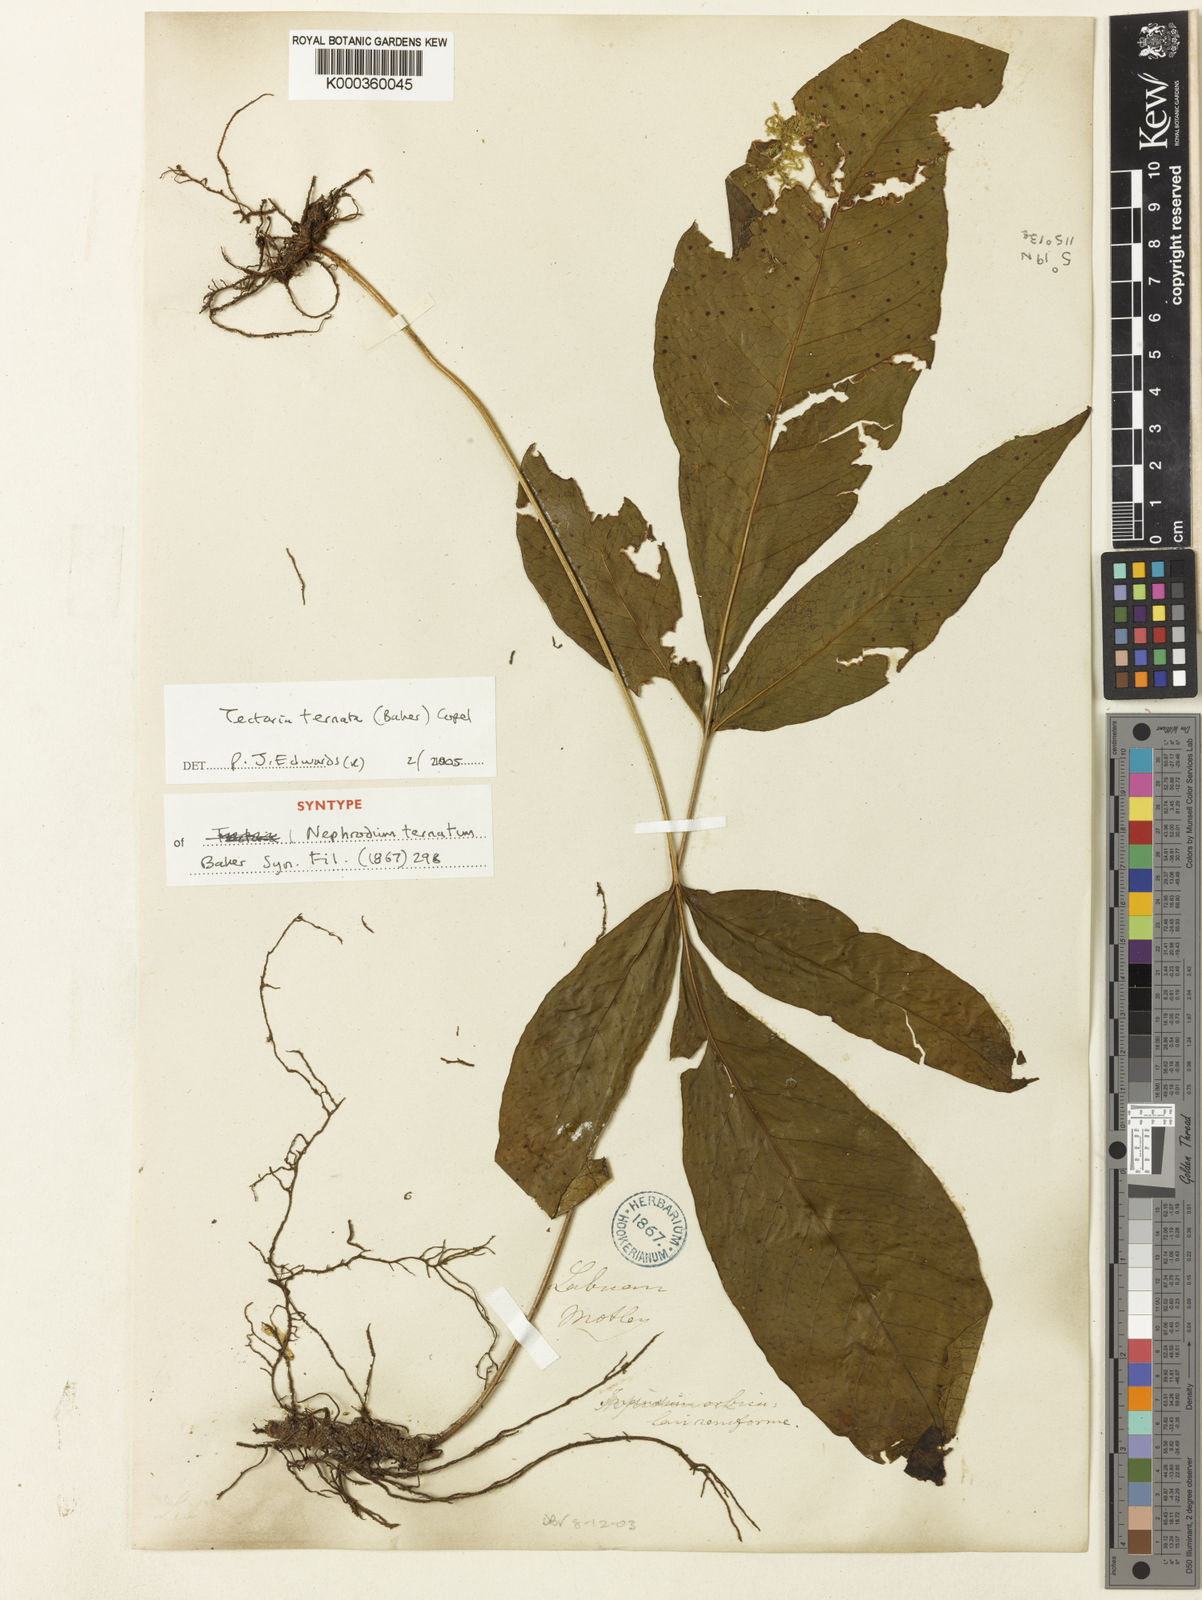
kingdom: Plantae
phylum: Tracheophyta
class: Polypodiopsida
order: Polypodiales
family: Tectariaceae
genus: Polydictyum
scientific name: Polydictyum ternatum
